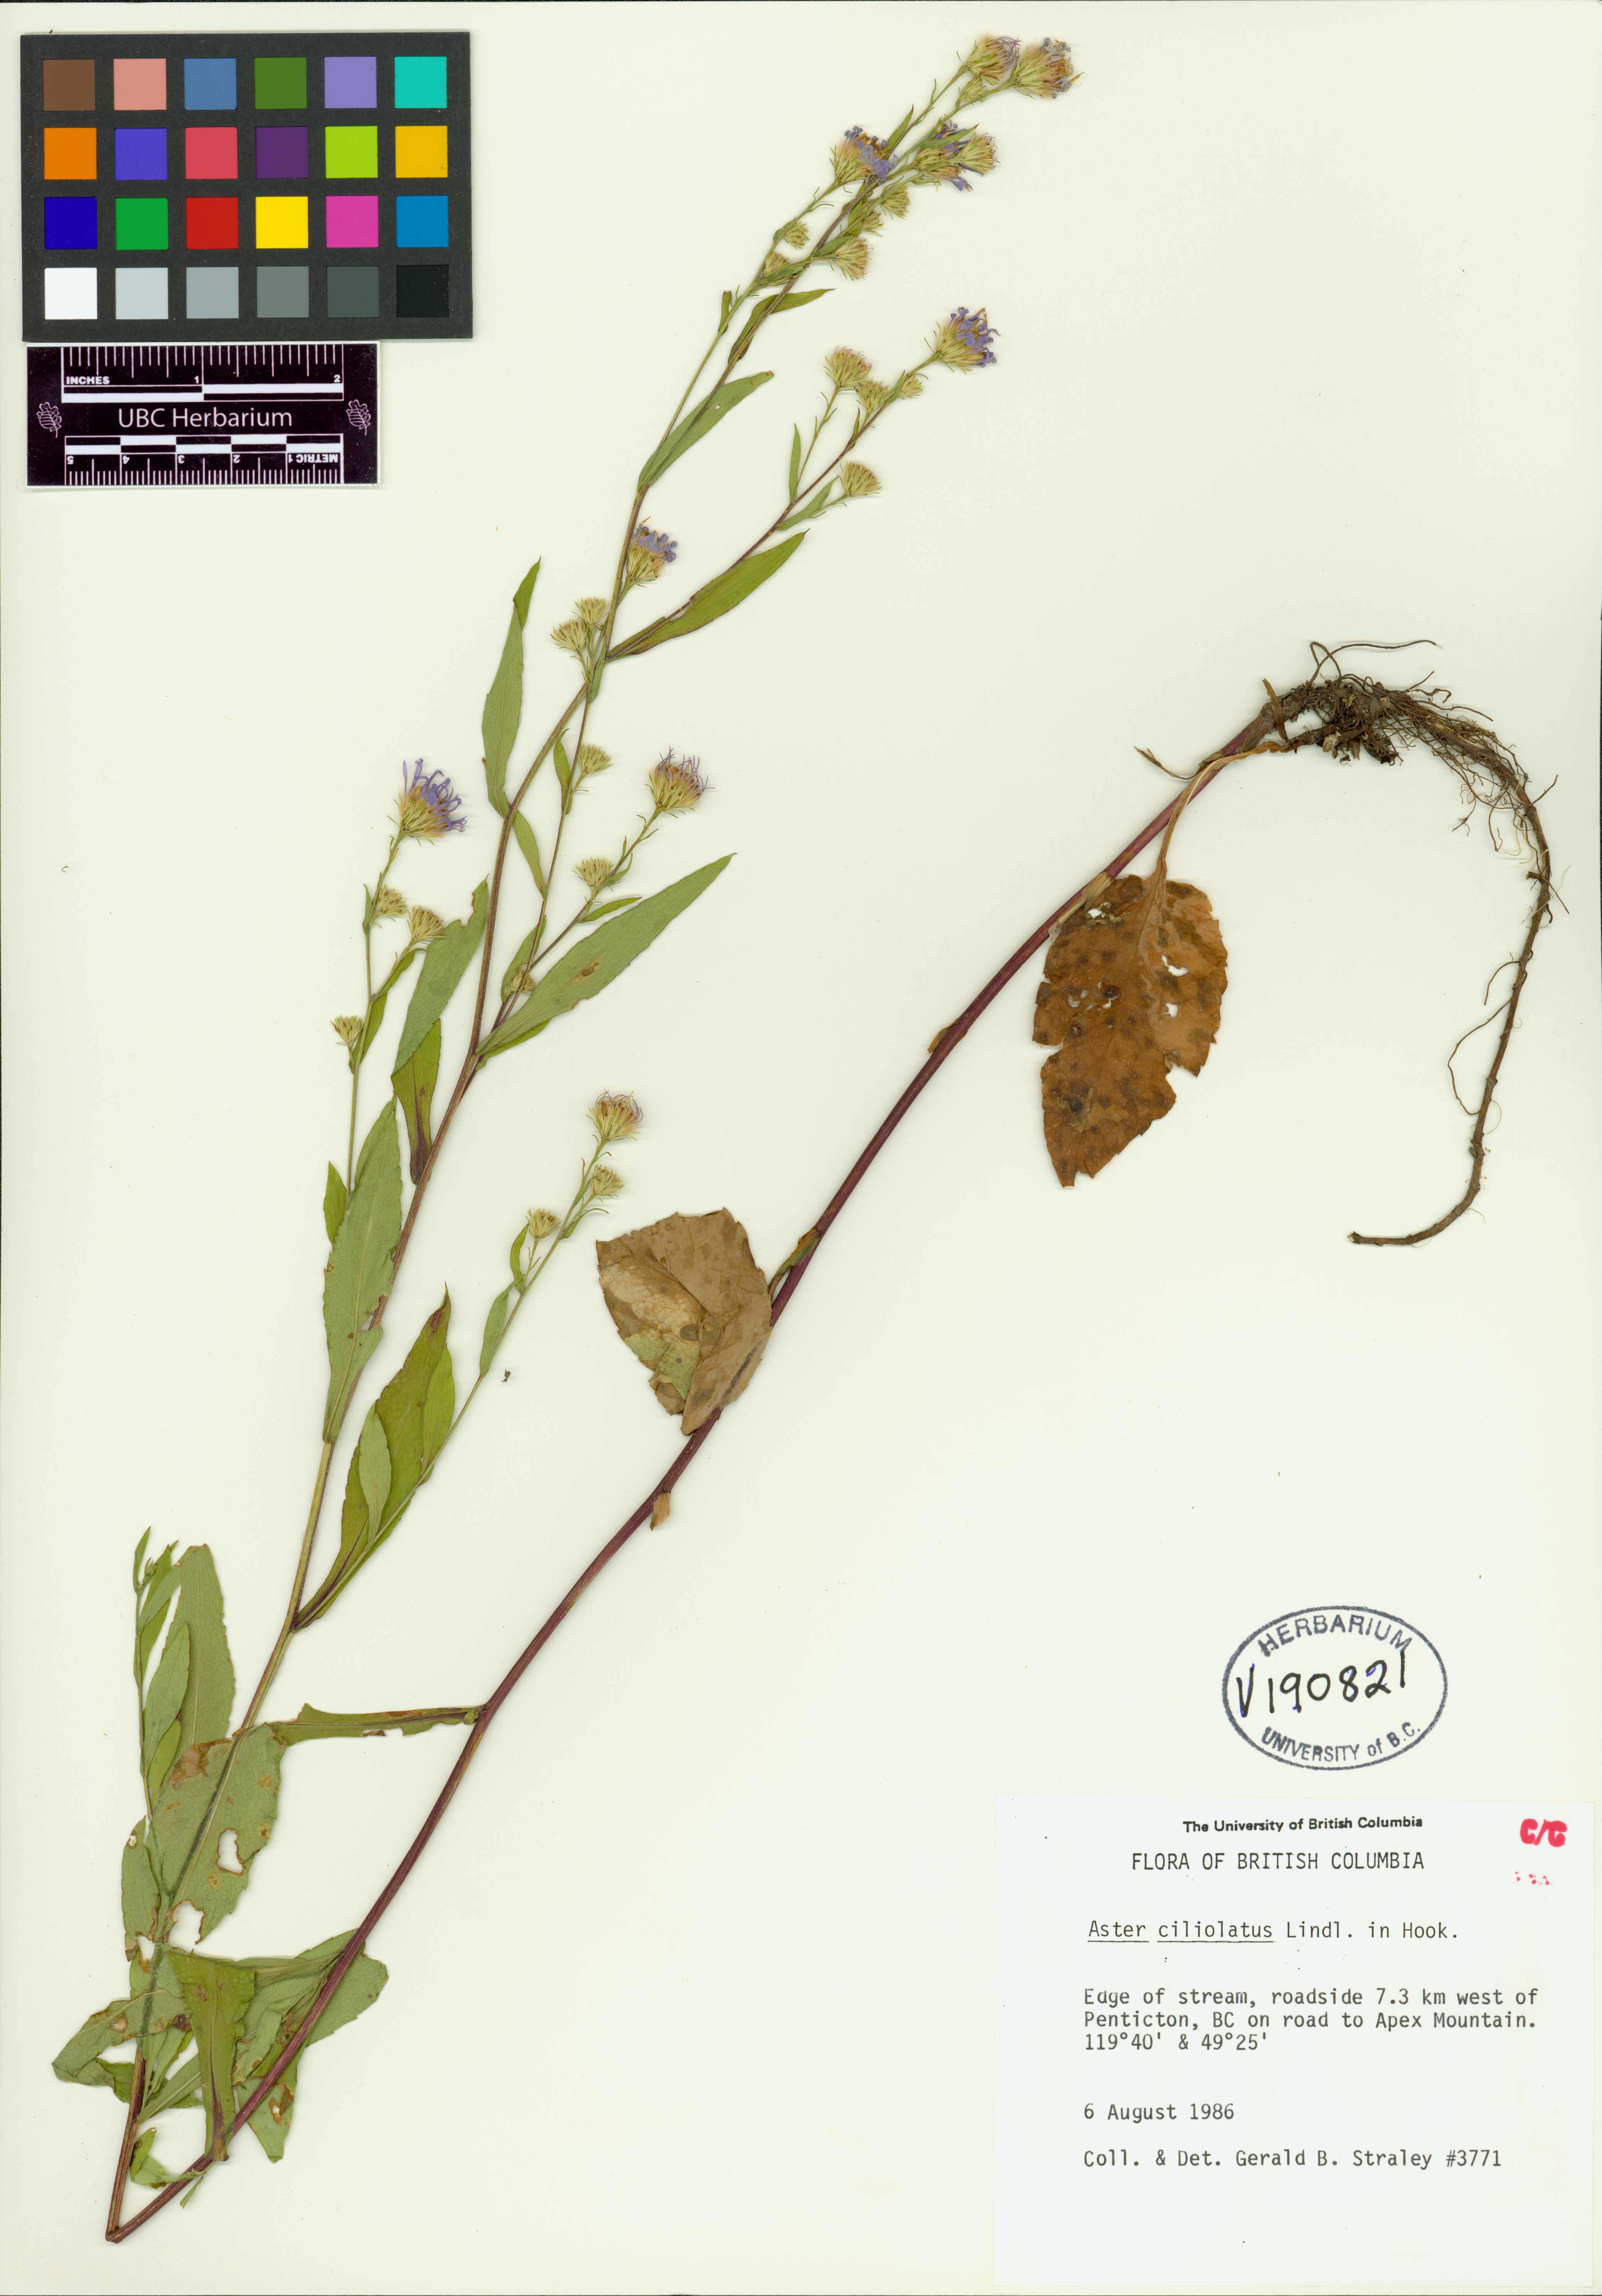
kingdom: Plantae
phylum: Tracheophyta
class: Magnoliopsida
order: Asterales
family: Asteraceae
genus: Symphyotrichum
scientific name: Symphyotrichum ciliolatum
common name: Fringed blue aster
